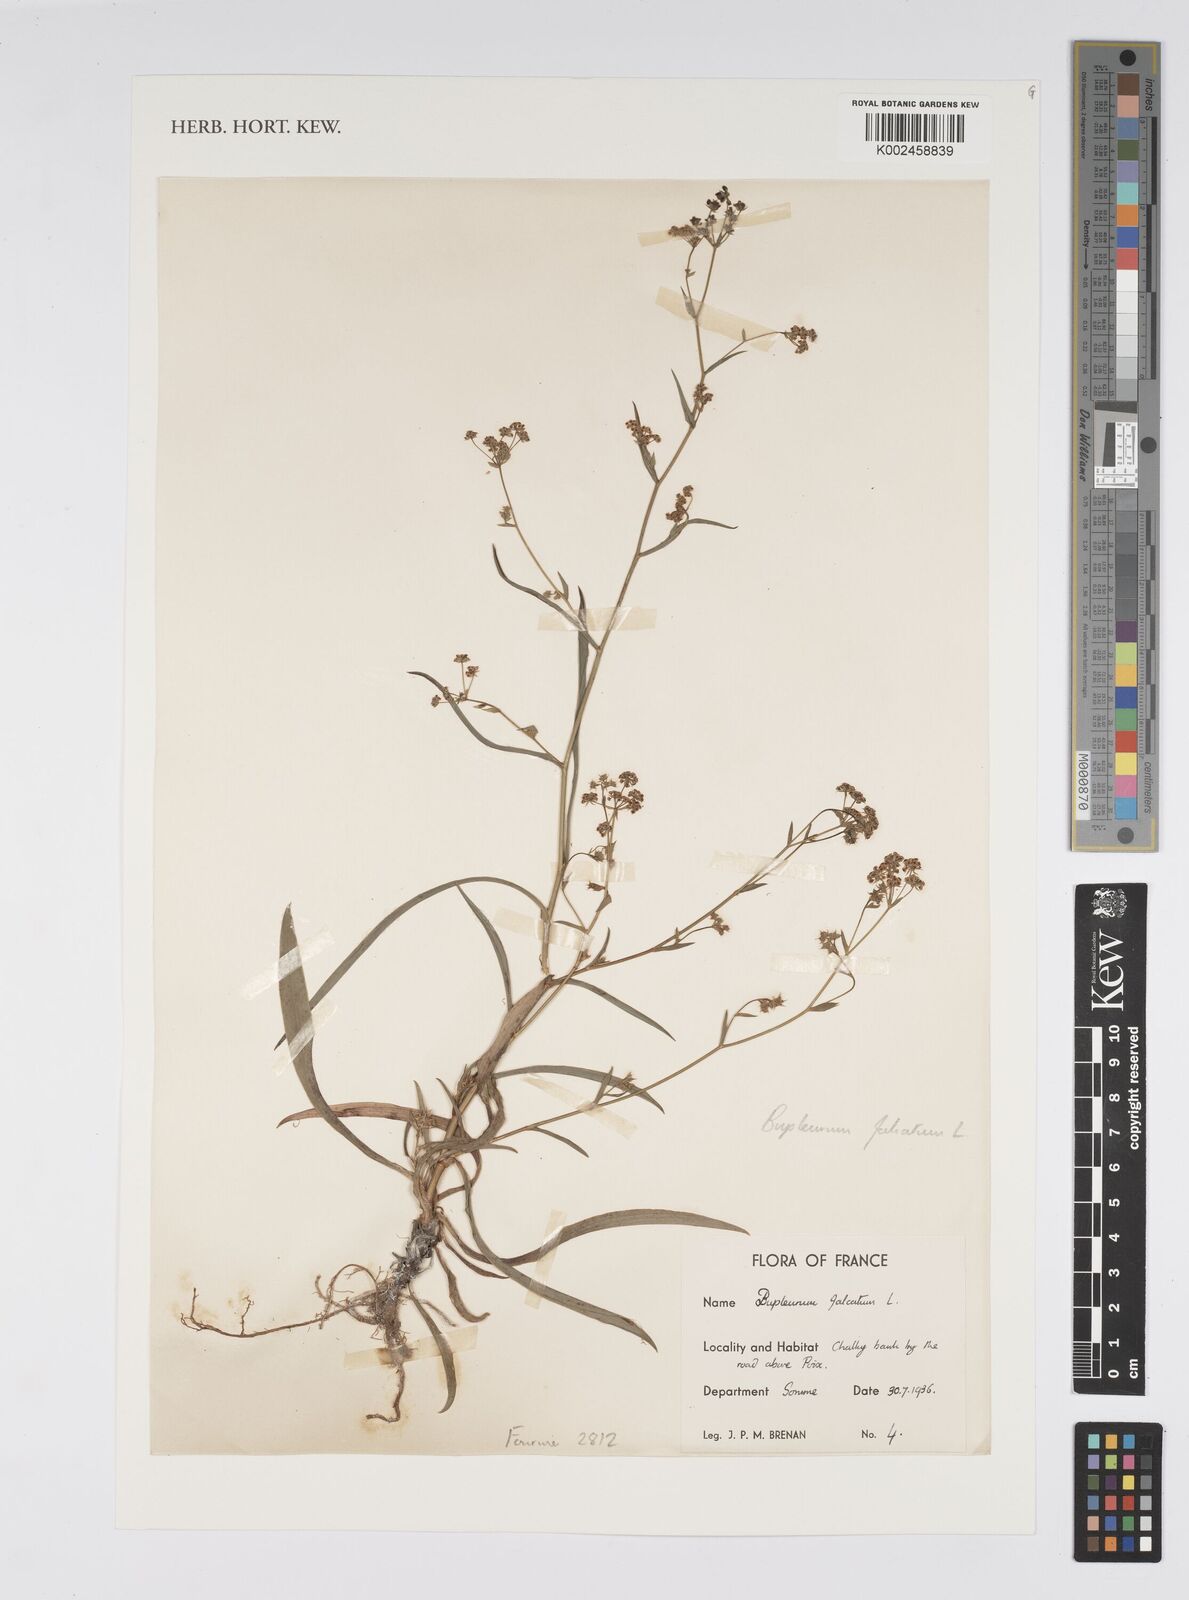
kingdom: Plantae
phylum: Tracheophyta
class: Magnoliopsida
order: Apiales
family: Apiaceae
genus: Bupleurum
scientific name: Bupleurum falcatum
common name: Sickle-leaved hare's-ear
